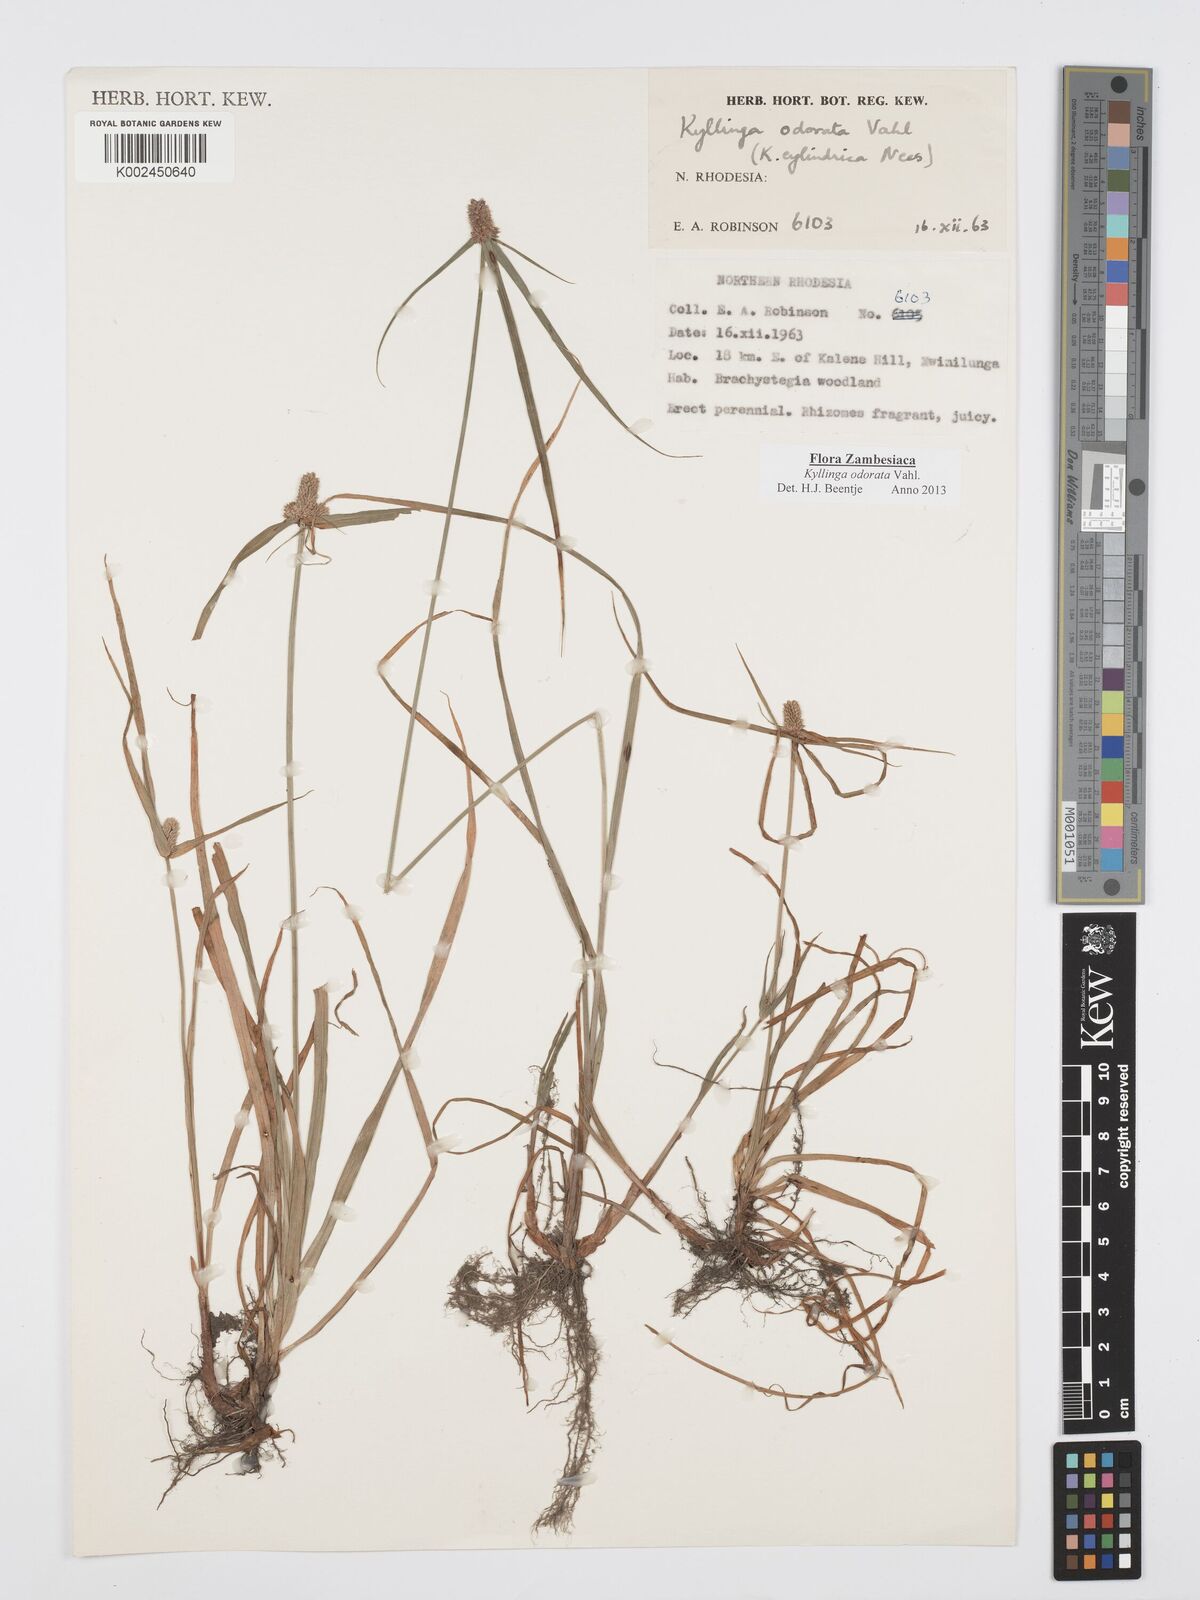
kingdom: Plantae
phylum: Tracheophyta
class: Liliopsida
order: Poales
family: Cyperaceae
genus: Cyperus
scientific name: Cyperus
